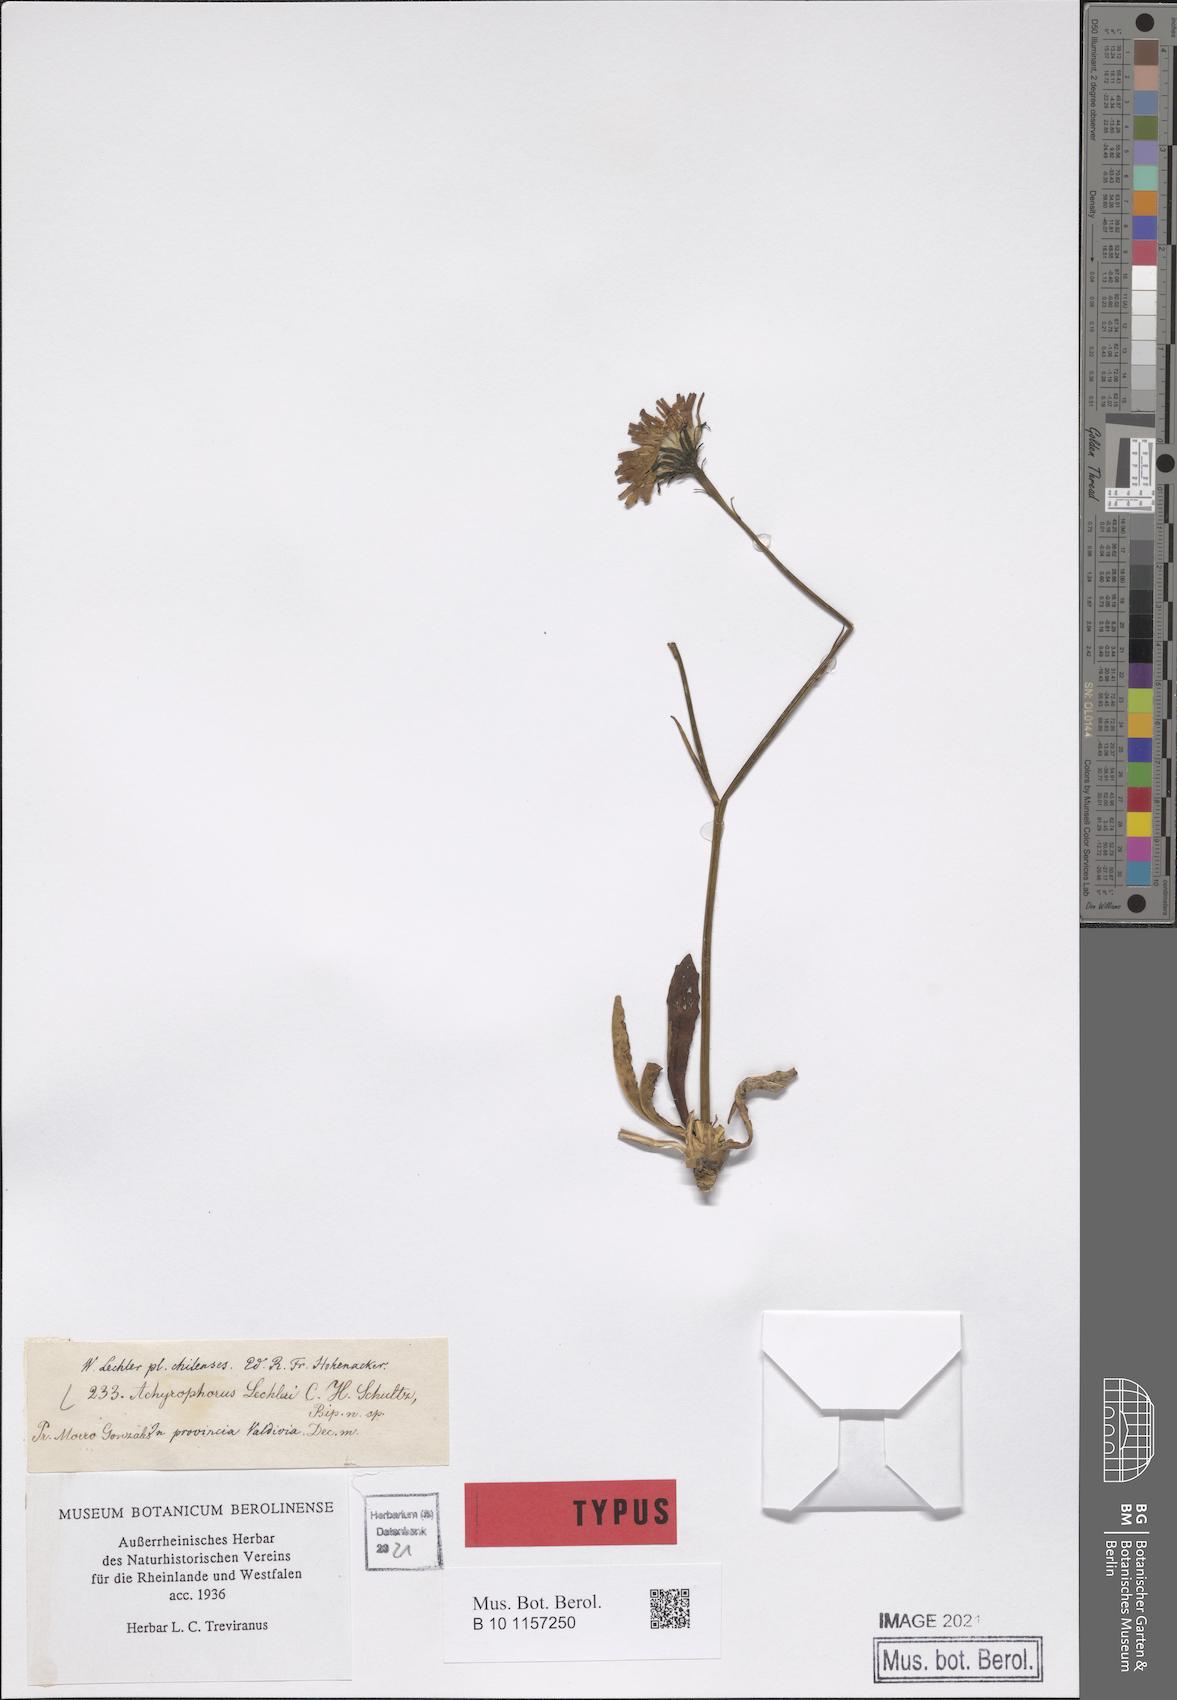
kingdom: Plantae
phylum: Tracheophyta
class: Magnoliopsida
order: Asterales
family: Asteraceae
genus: Hypochaeris
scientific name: Hypochaeris apargioides
